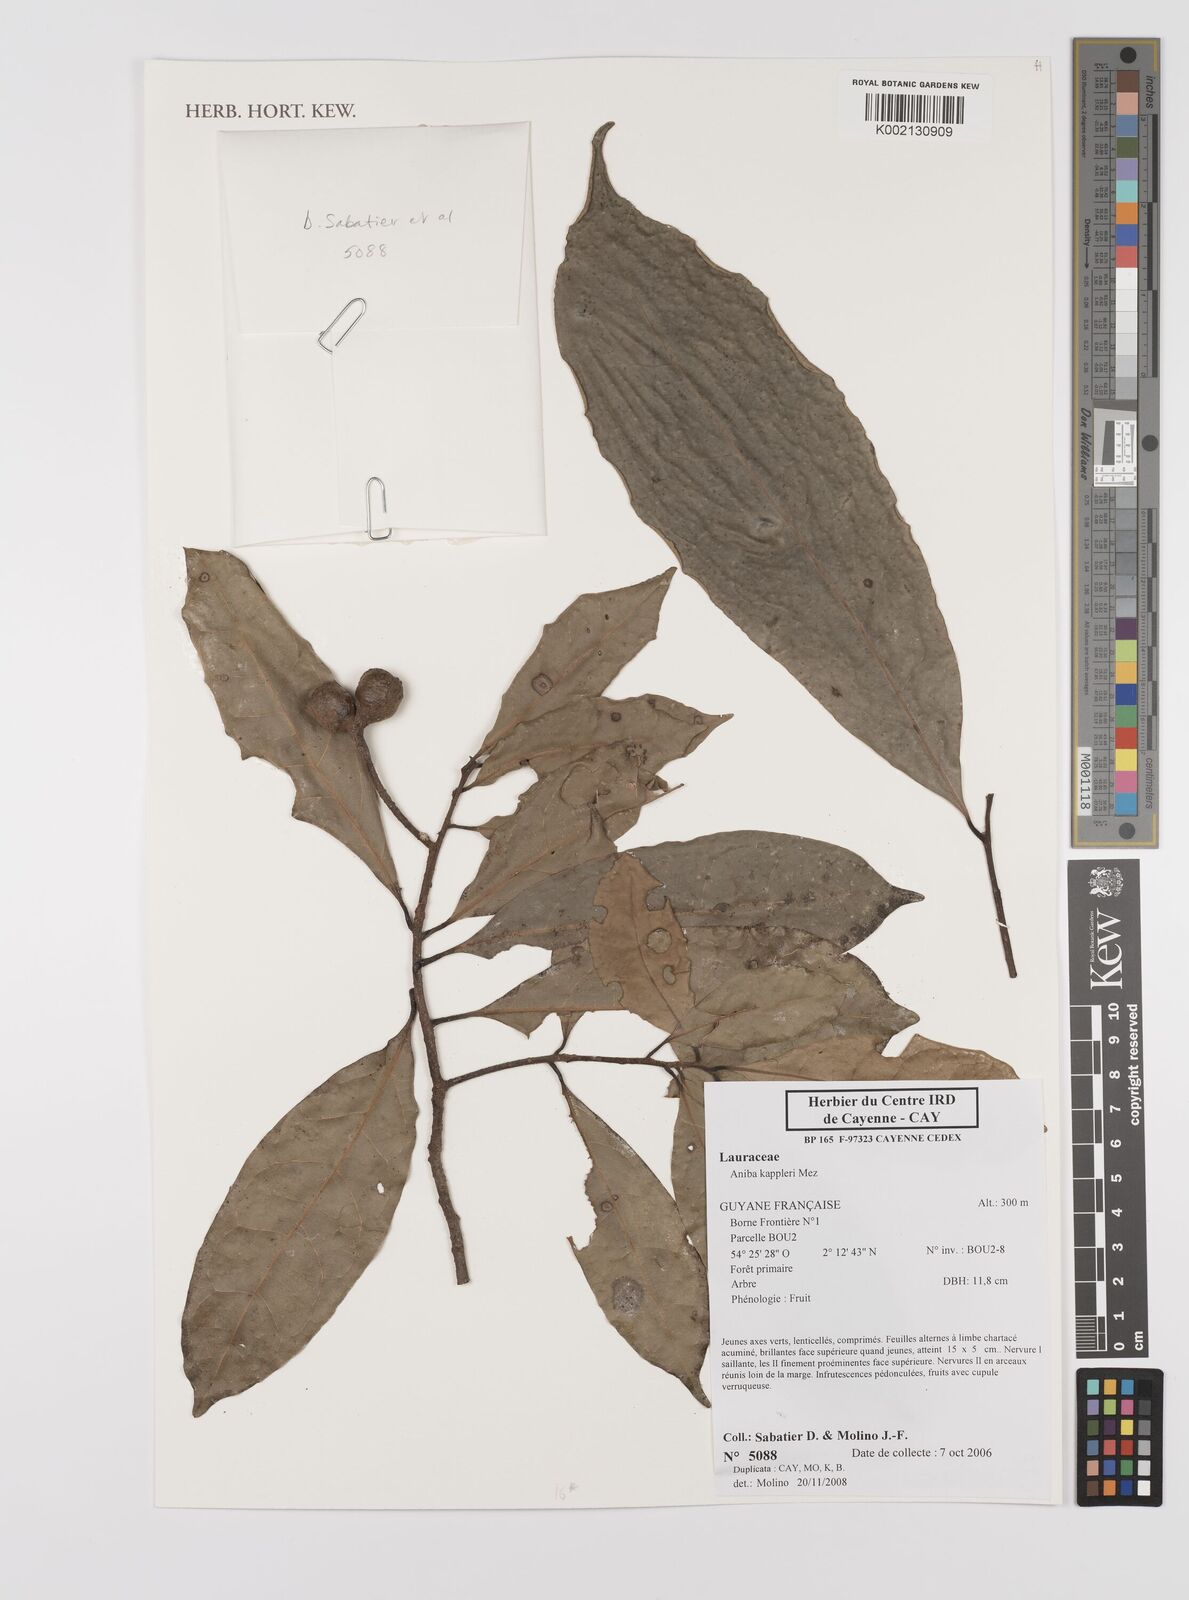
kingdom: Plantae
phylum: Tracheophyta
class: Magnoliopsida
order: Laurales
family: Lauraceae
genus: Aniba
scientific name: Aniba kappleri
